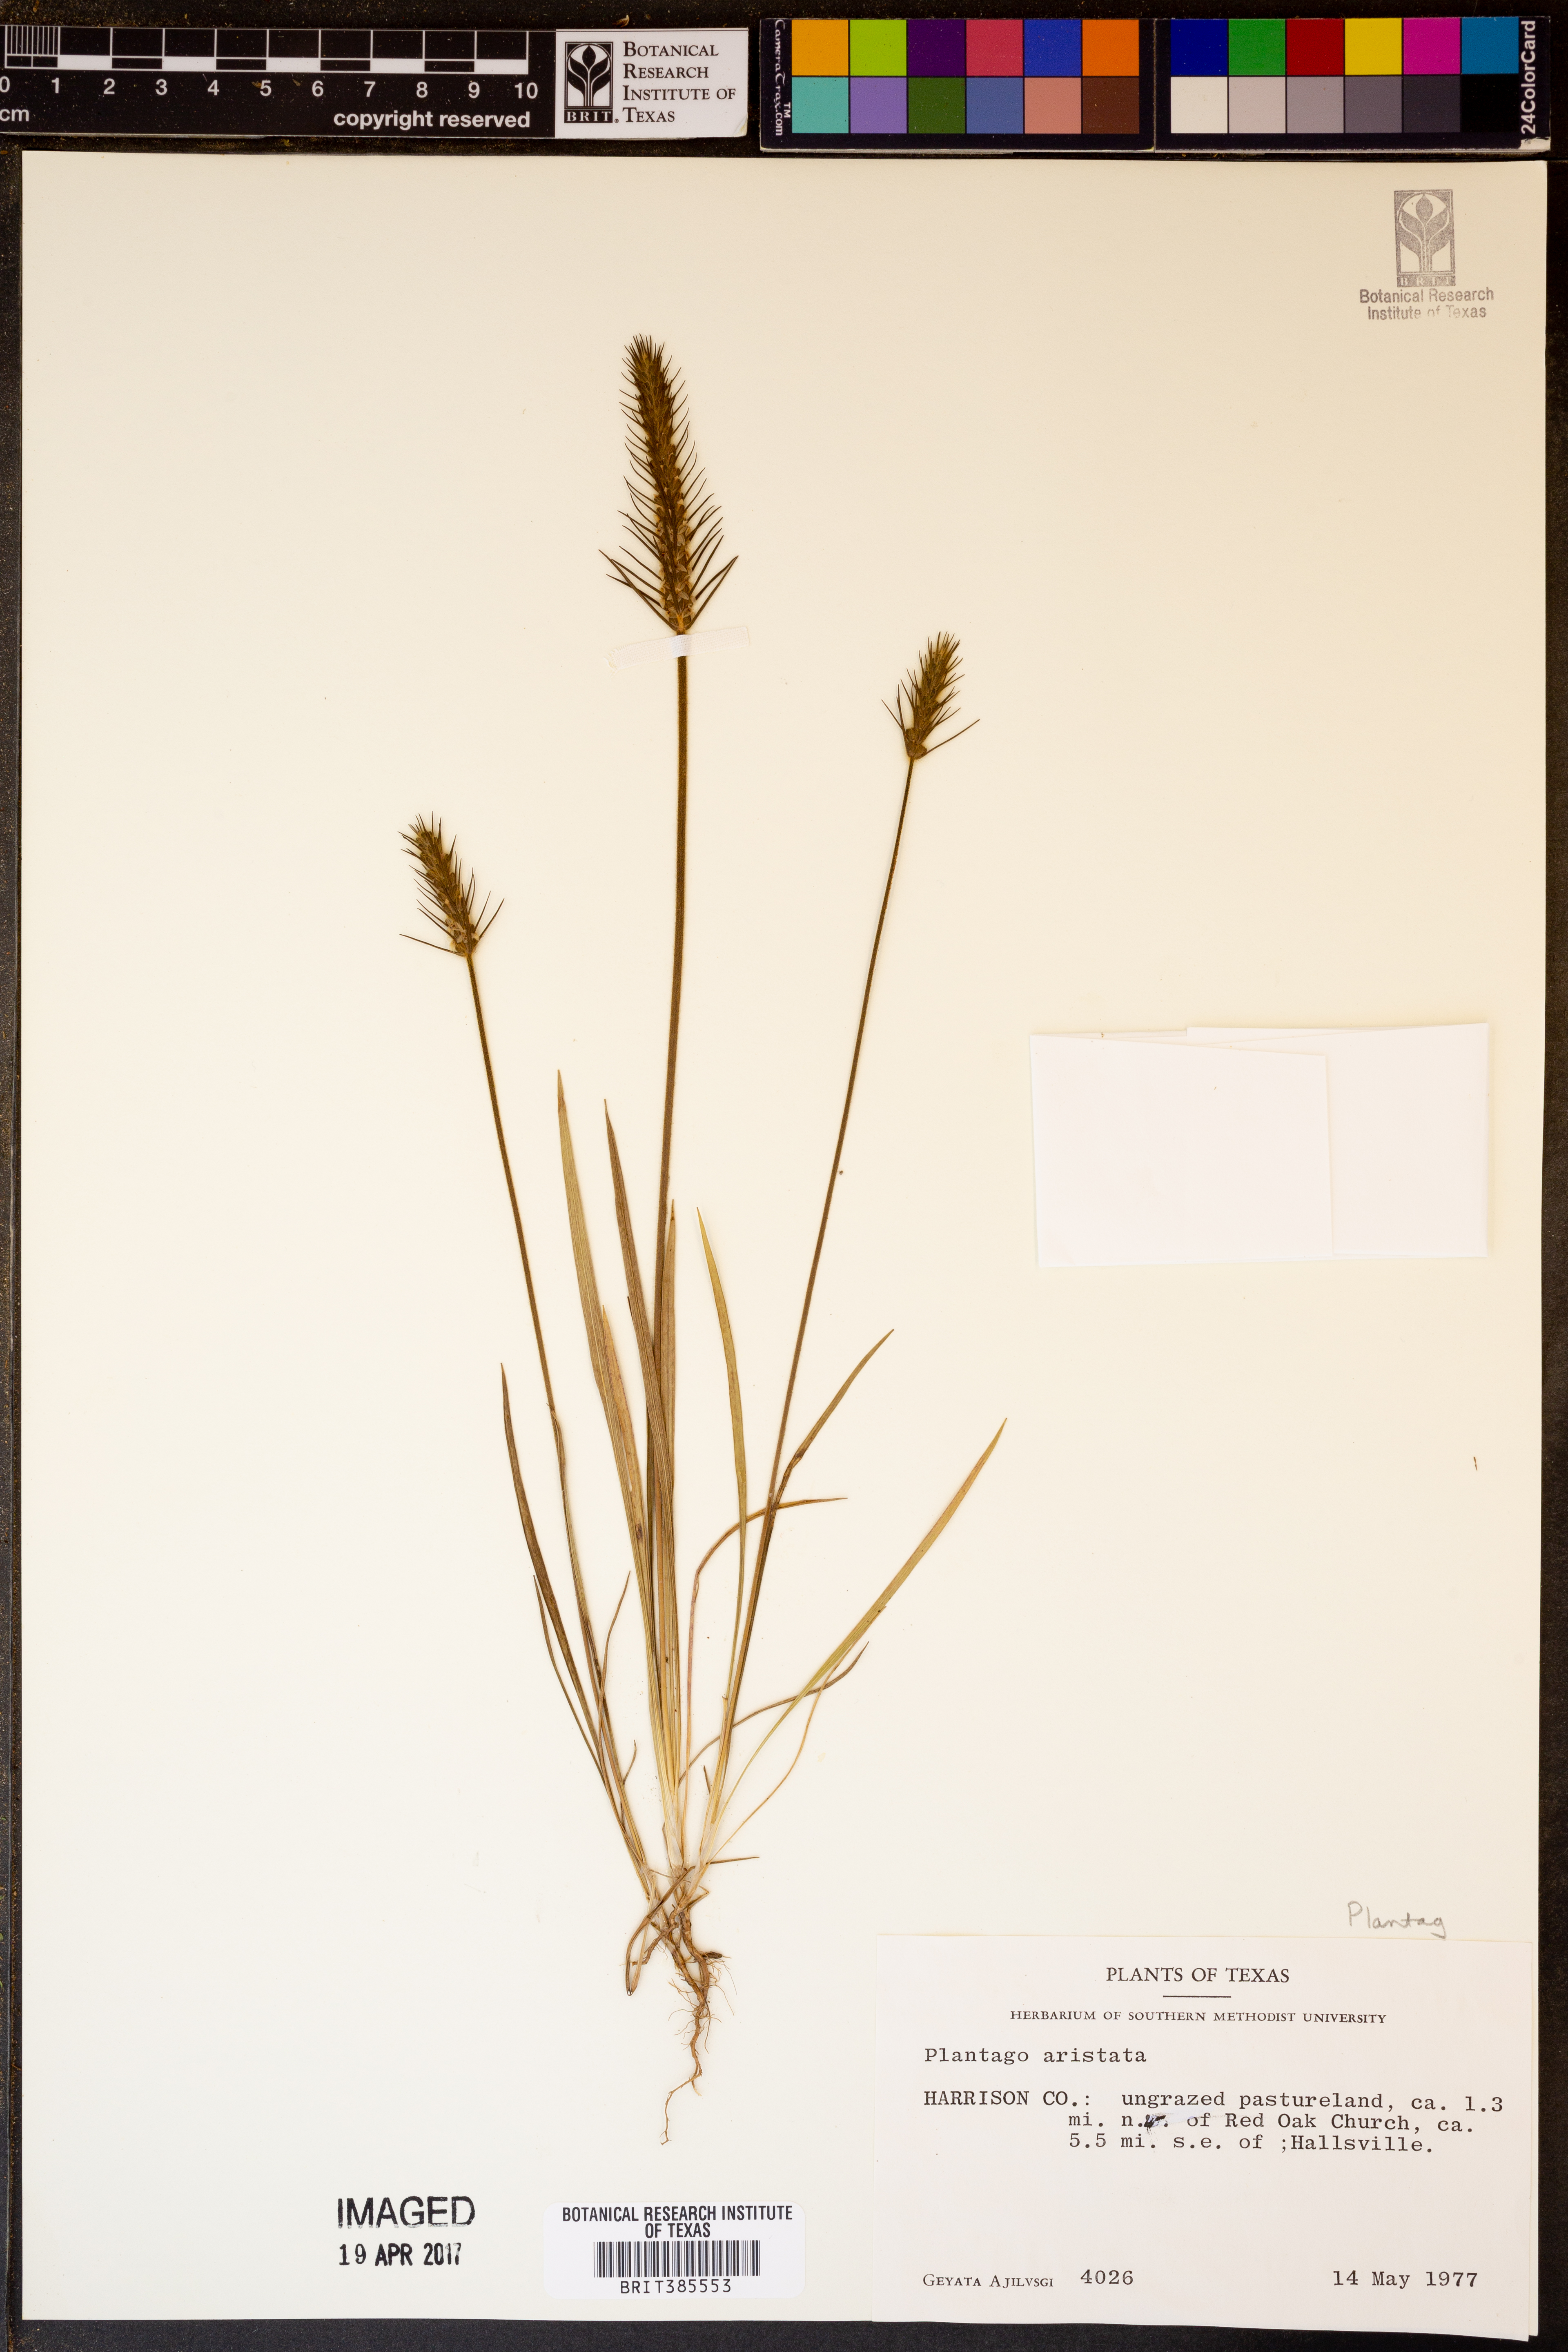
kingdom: Plantae
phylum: Tracheophyta
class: Magnoliopsida
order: Lamiales
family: Plantaginaceae
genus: Plantago
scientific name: Plantago aristata
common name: Bracted plantain
